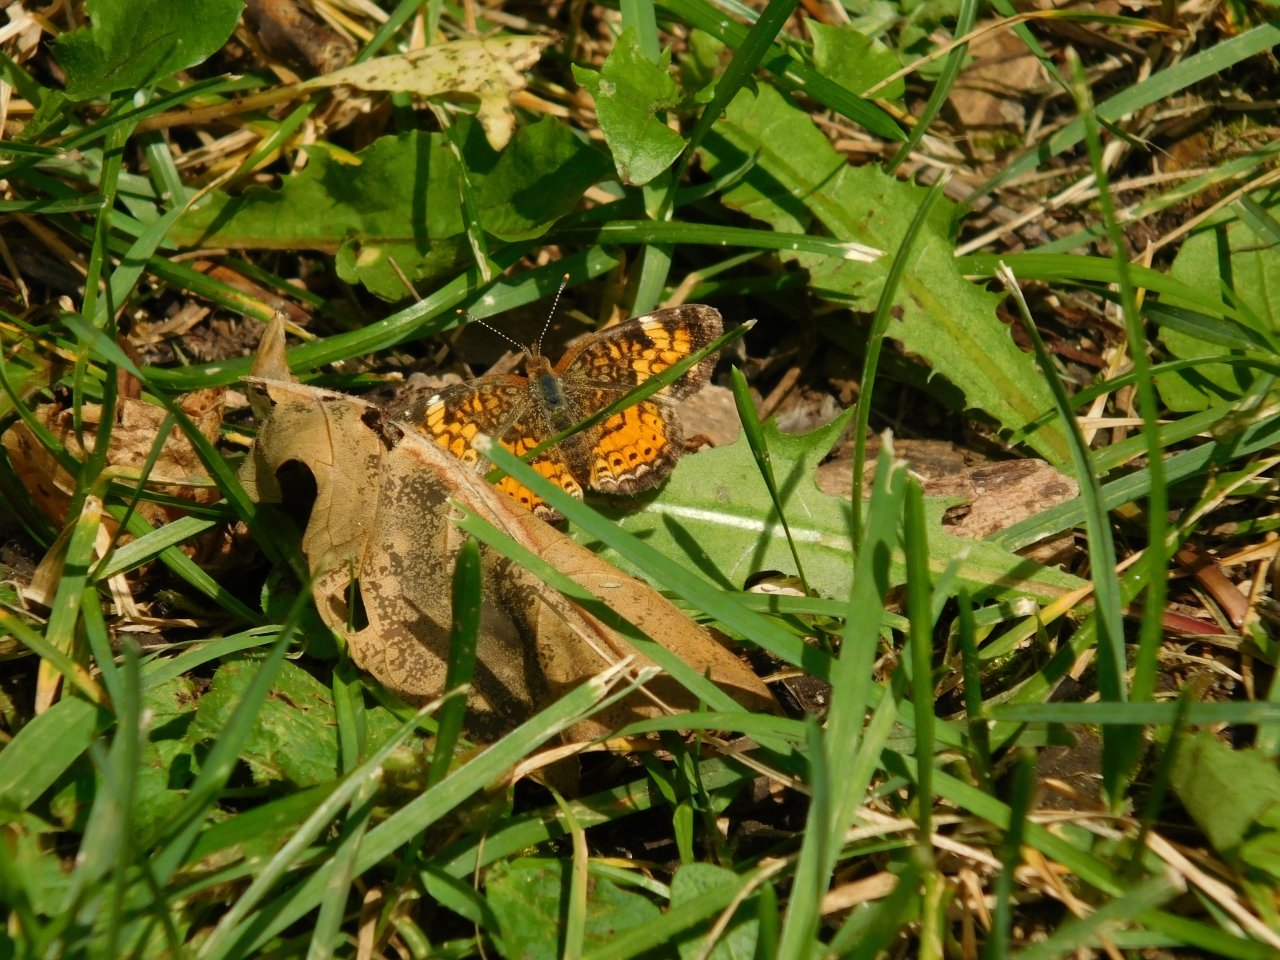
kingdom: Animalia
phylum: Arthropoda
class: Insecta
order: Lepidoptera
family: Nymphalidae
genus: Phyciodes
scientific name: Phyciodes tharos
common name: Northern Crescent
